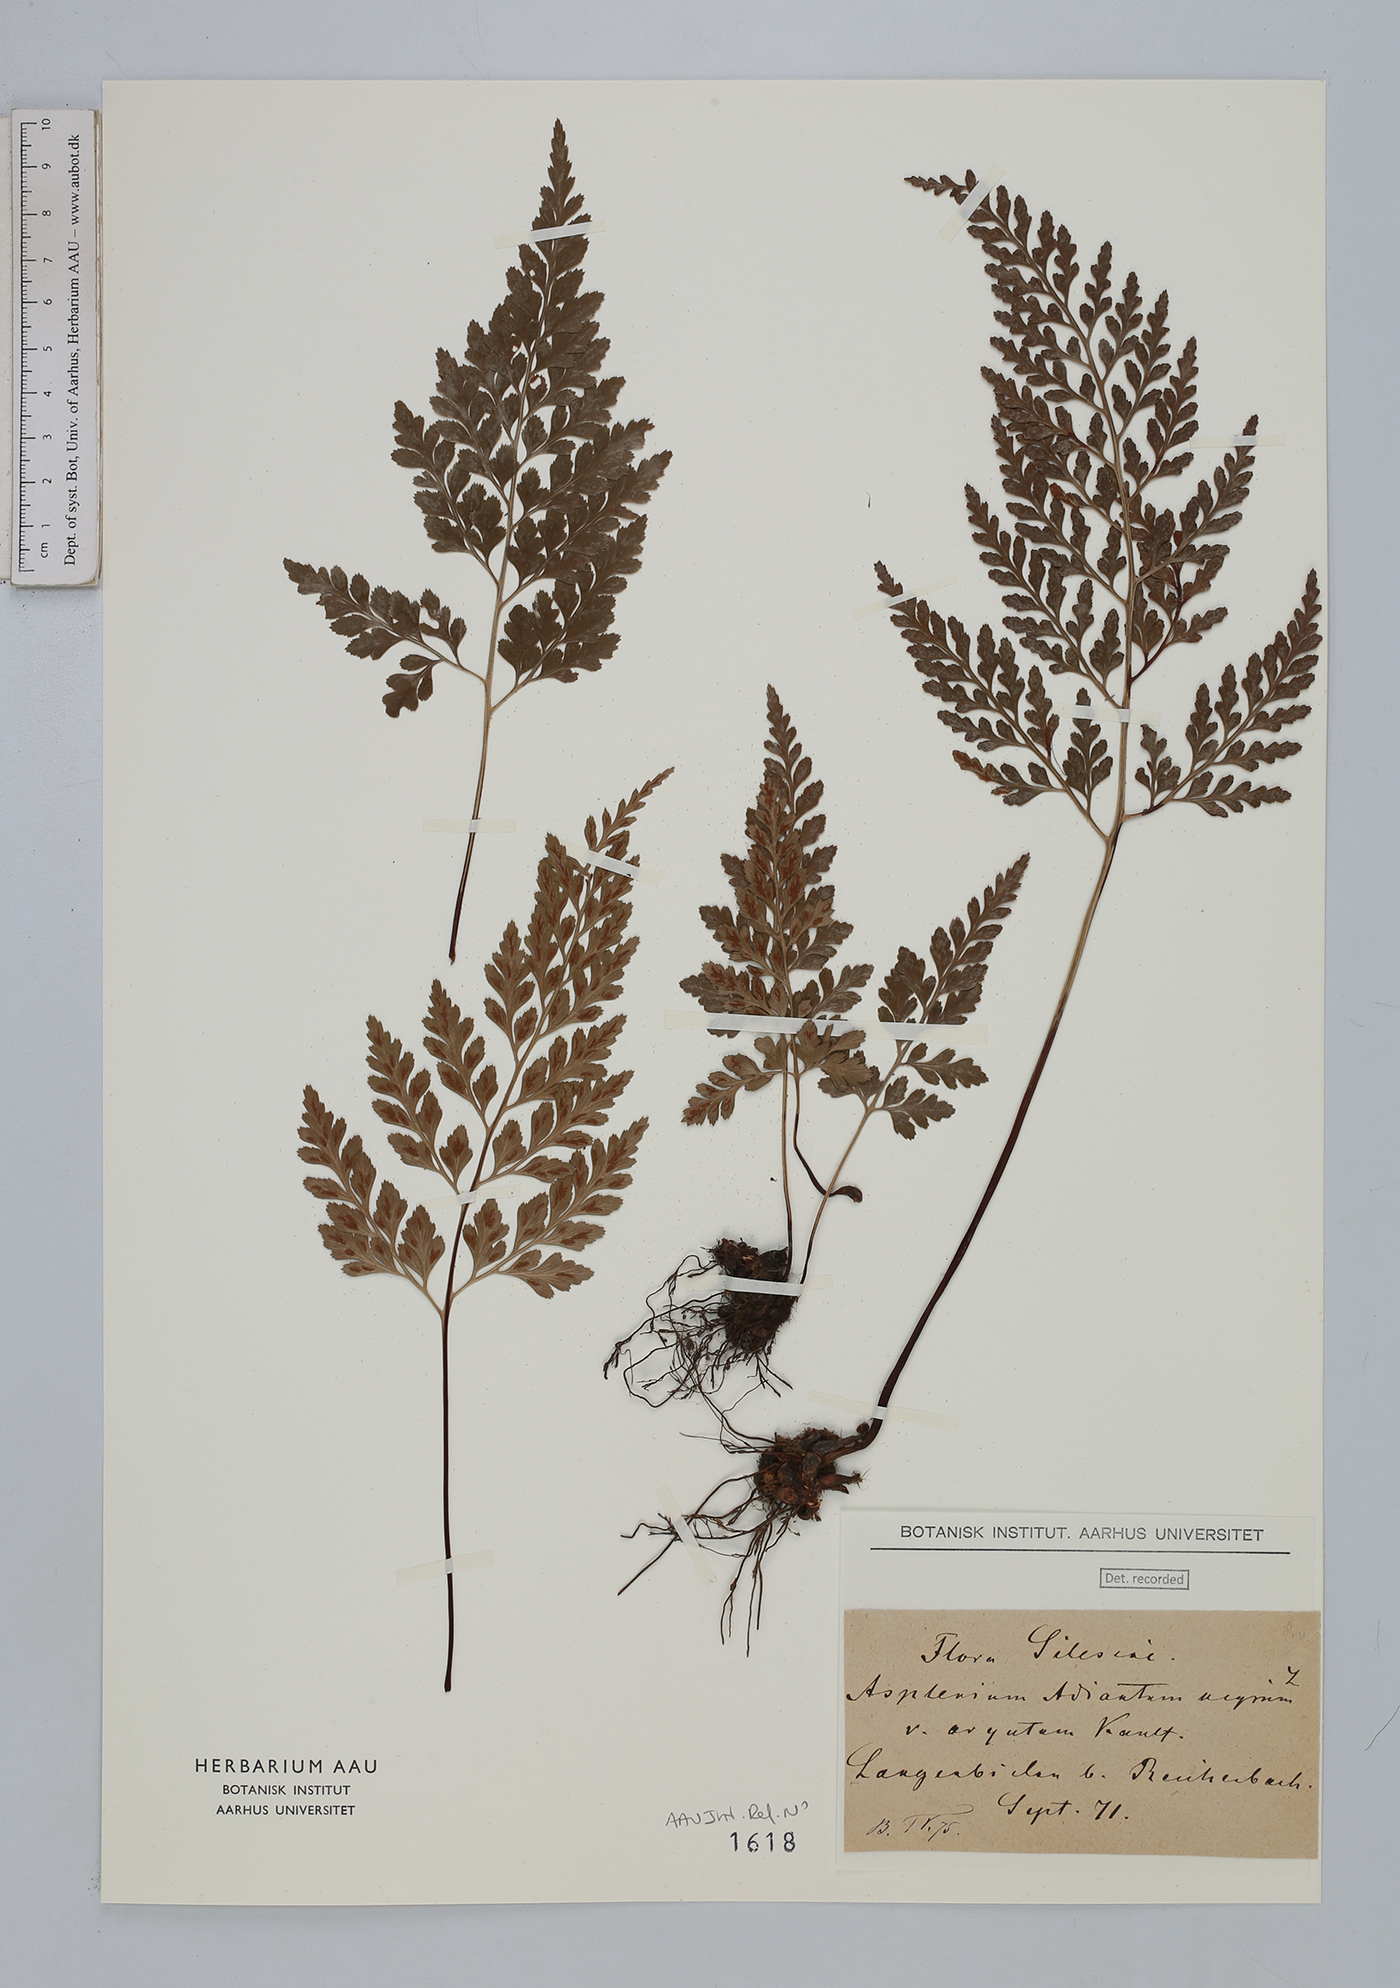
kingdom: Plantae
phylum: Tracheophyta
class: Polypodiopsida
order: Polypodiales
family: Aspleniaceae
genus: Asplenium
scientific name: Asplenium adiantum-nigrum
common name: Black spleenwort
